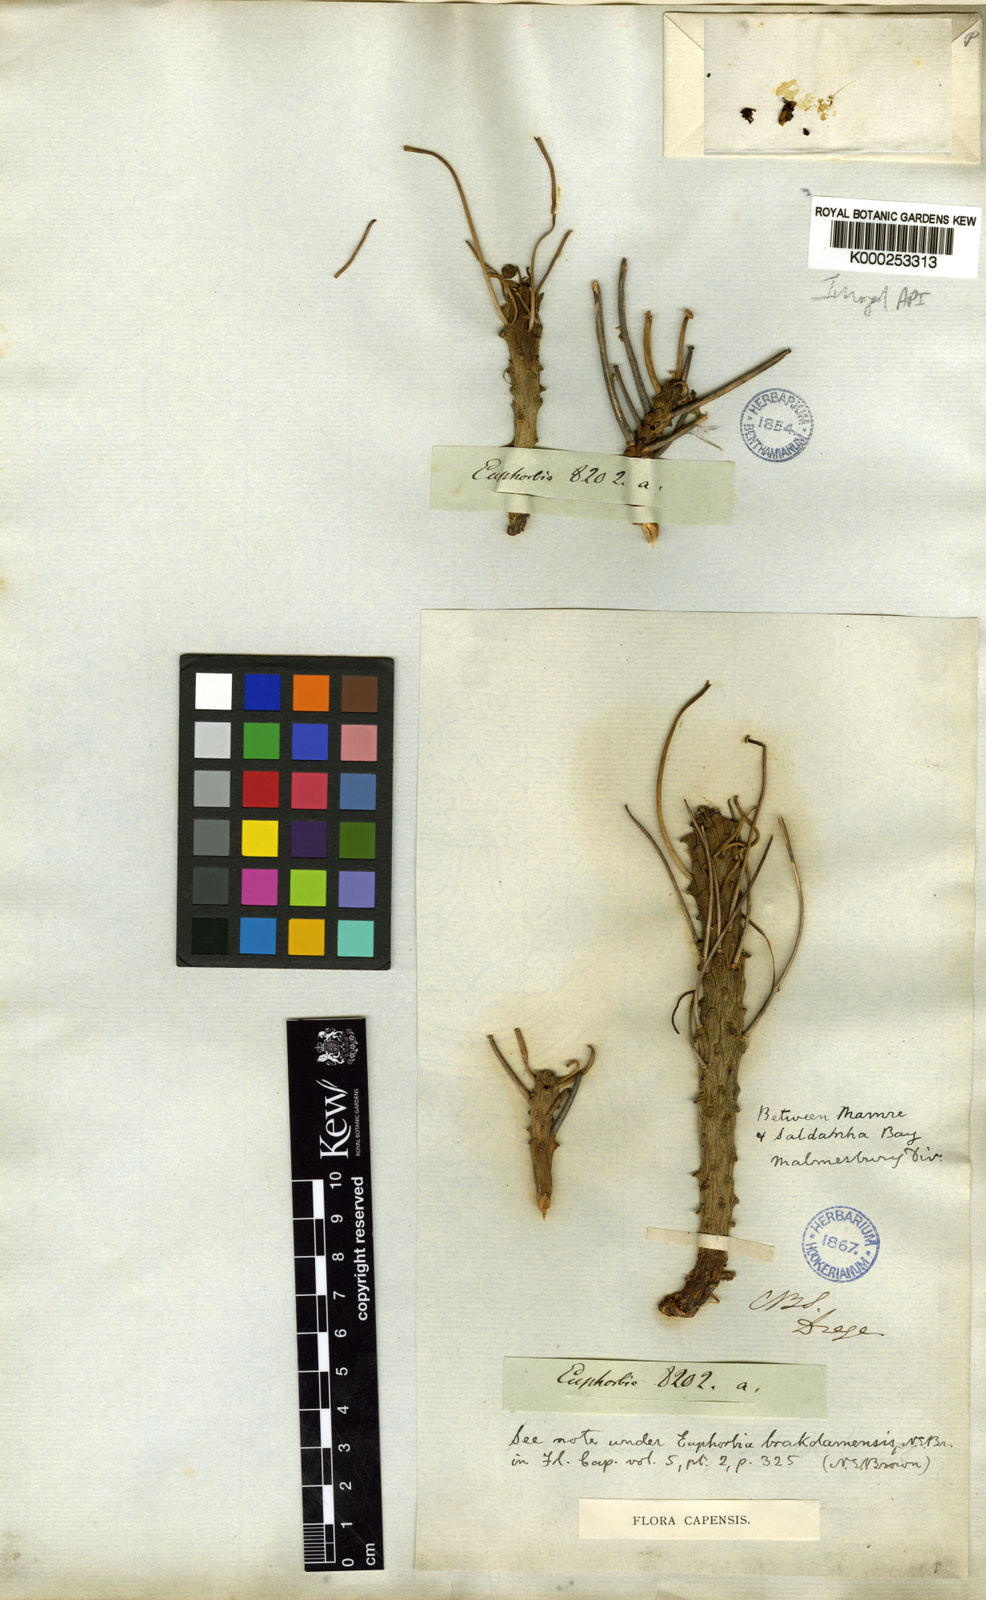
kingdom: Plantae
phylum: Tracheophyta
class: Magnoliopsida
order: Malpighiales
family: Euphorbiaceae
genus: Euphorbia
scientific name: Euphorbia caput-medusae
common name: Medusa's-head
